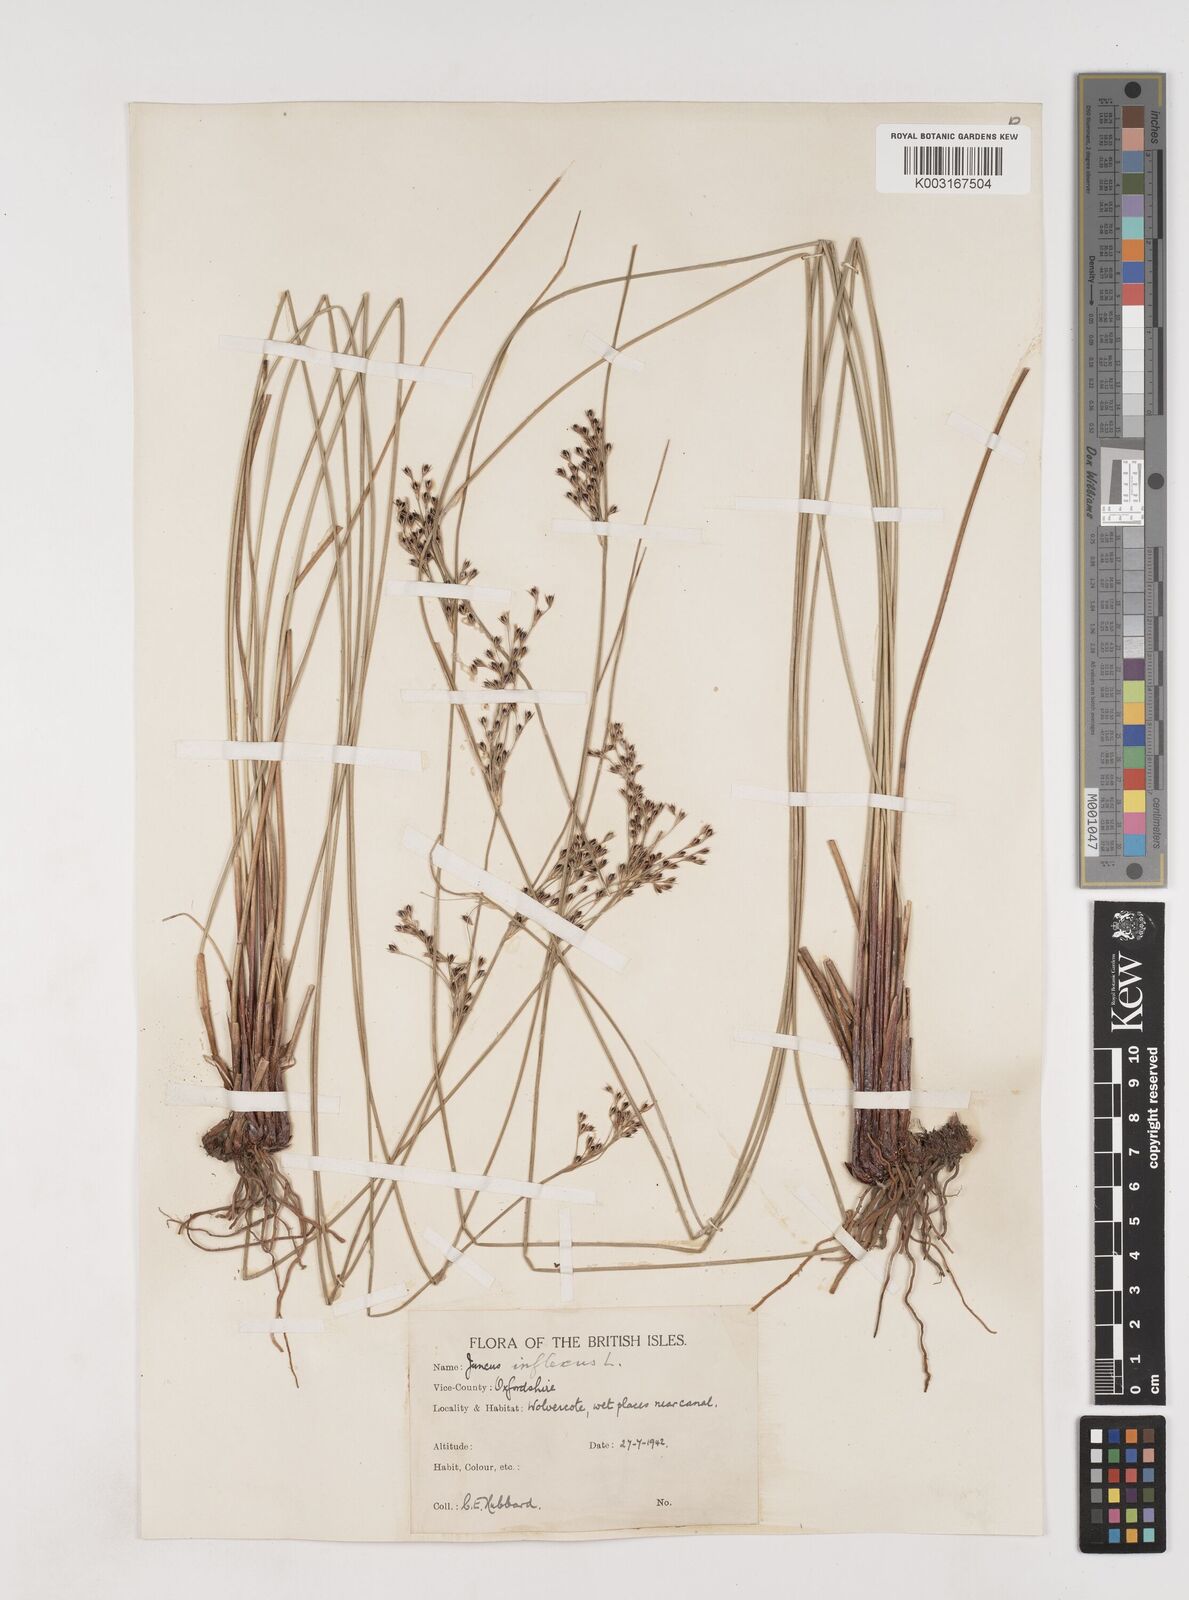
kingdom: Plantae
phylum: Tracheophyta
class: Liliopsida
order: Poales
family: Juncaceae
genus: Juncus
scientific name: Juncus inflexus
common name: Hard rush
